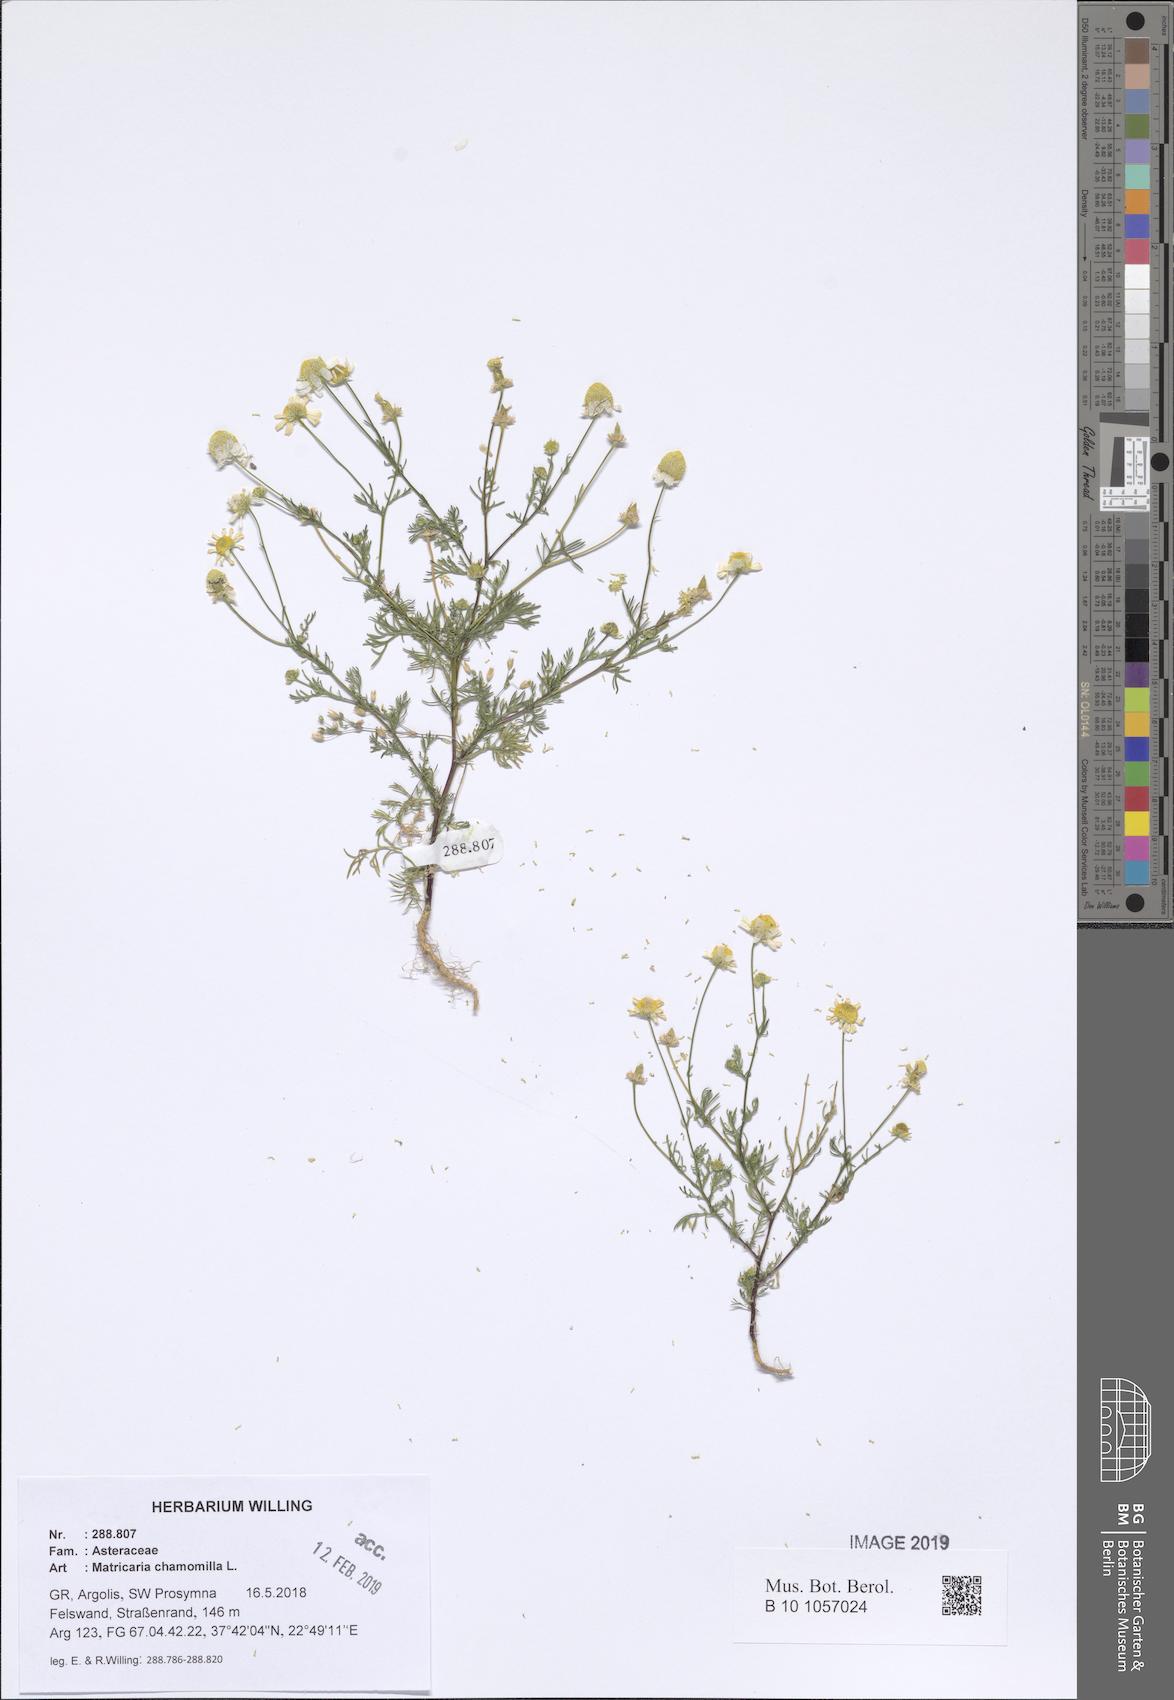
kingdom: Plantae
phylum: Tracheophyta
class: Magnoliopsida
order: Asterales
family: Asteraceae
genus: Matricaria
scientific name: Matricaria chamomilla
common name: Scented mayweed
